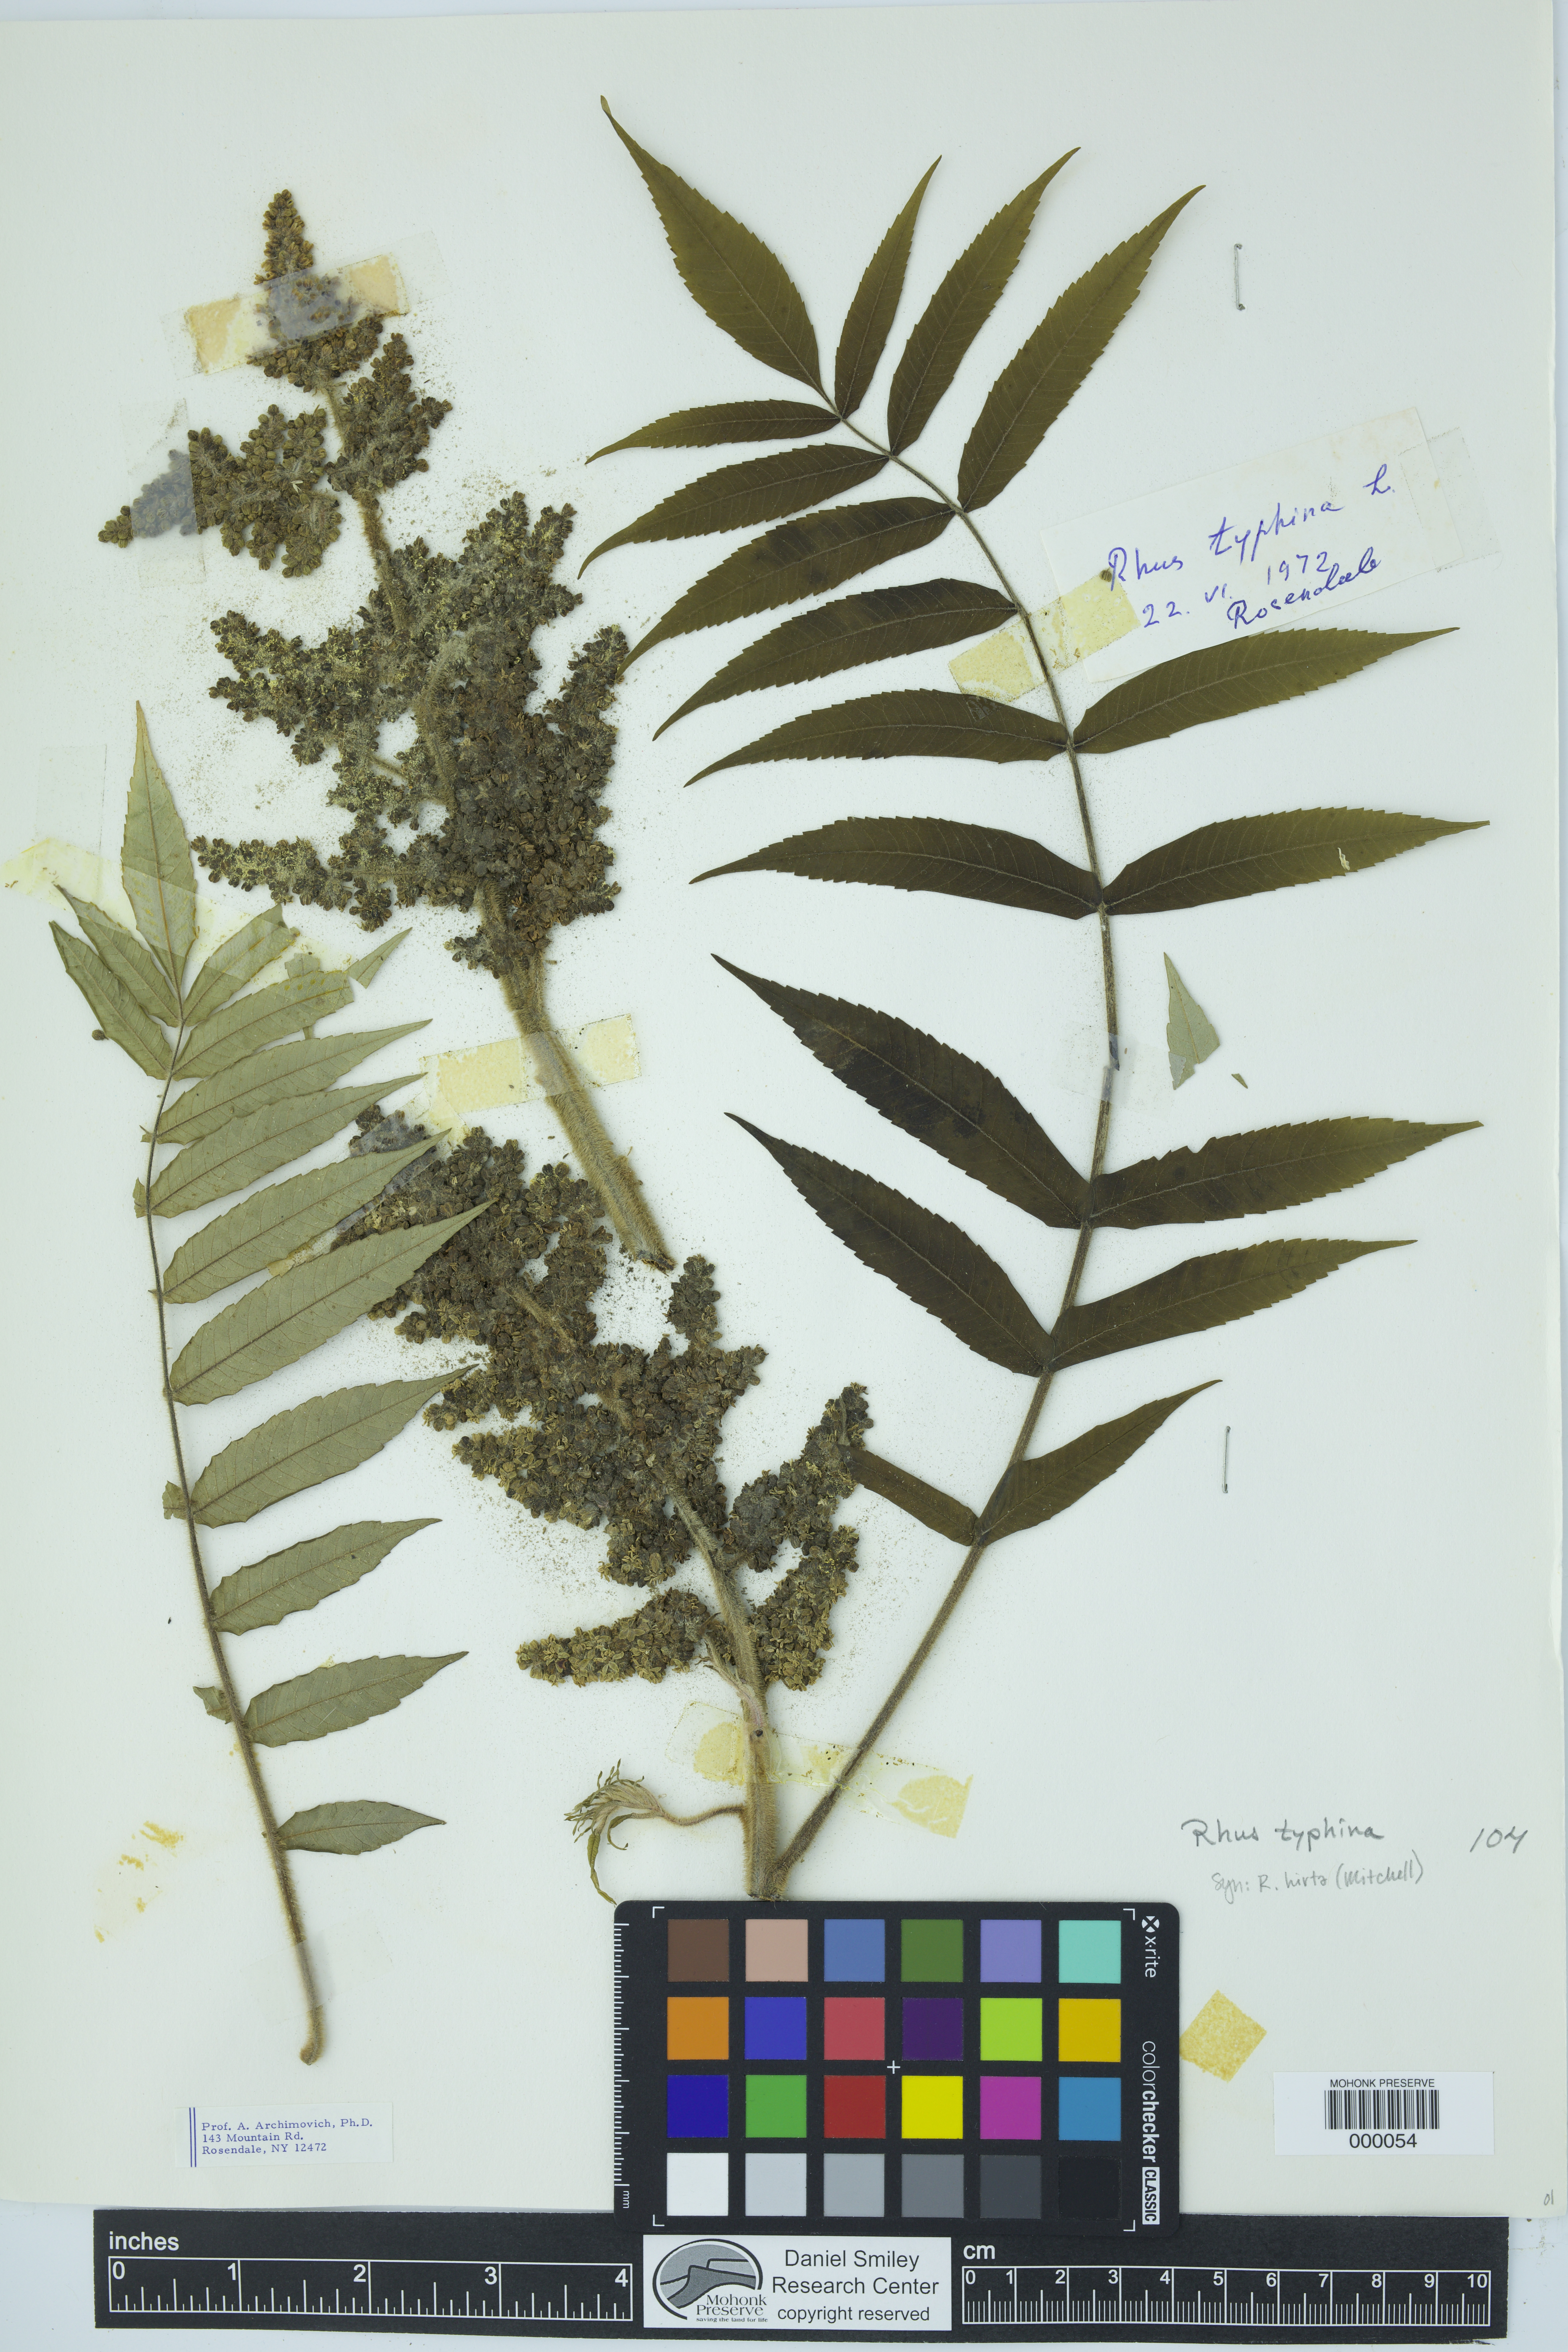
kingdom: Plantae
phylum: Tracheophyta
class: Magnoliopsida
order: Sapindales
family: Anacardiaceae
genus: Rhus
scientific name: Rhus typhina
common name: Staghorn sumac
